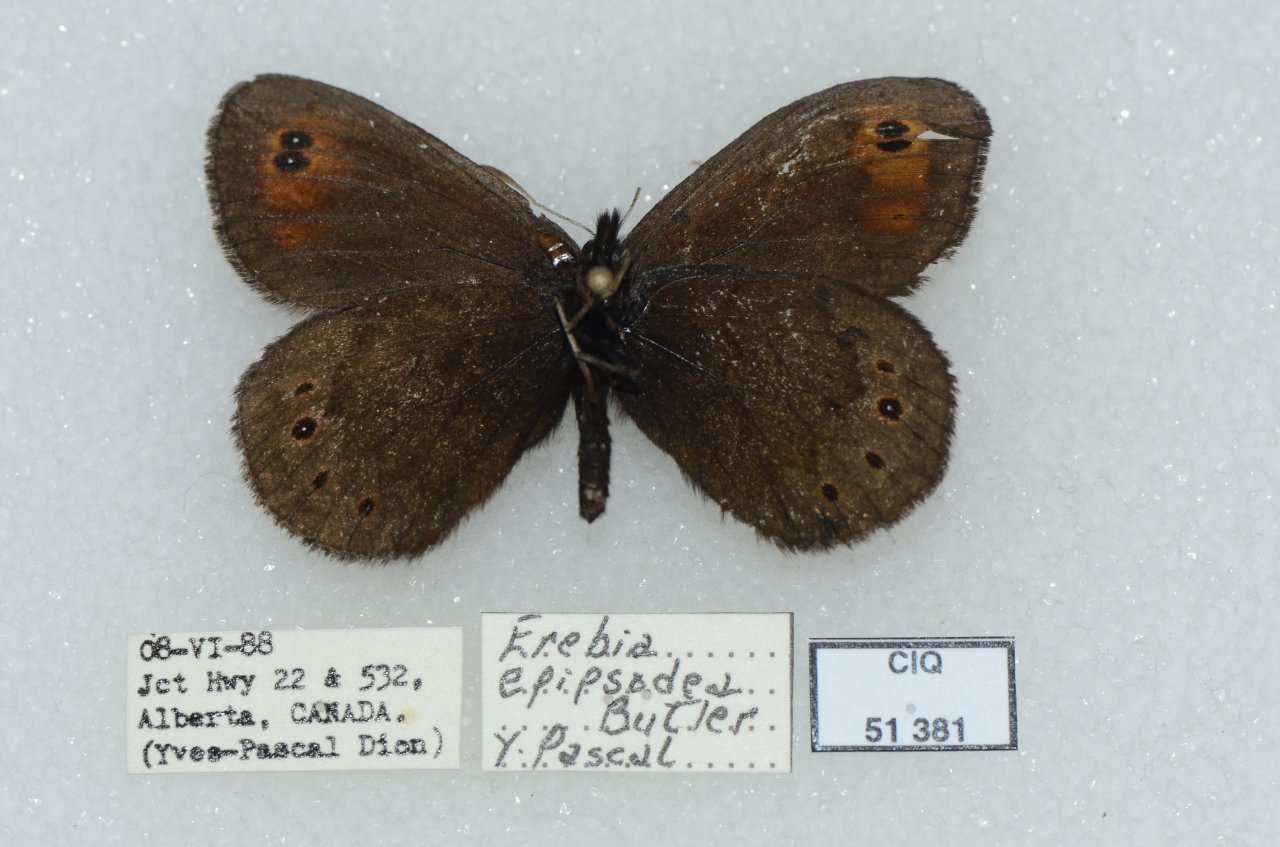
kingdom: Animalia
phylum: Arthropoda
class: Insecta
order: Lepidoptera
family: Nymphalidae
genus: Erebia
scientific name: Erebia epipsodea
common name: Common Alpine
